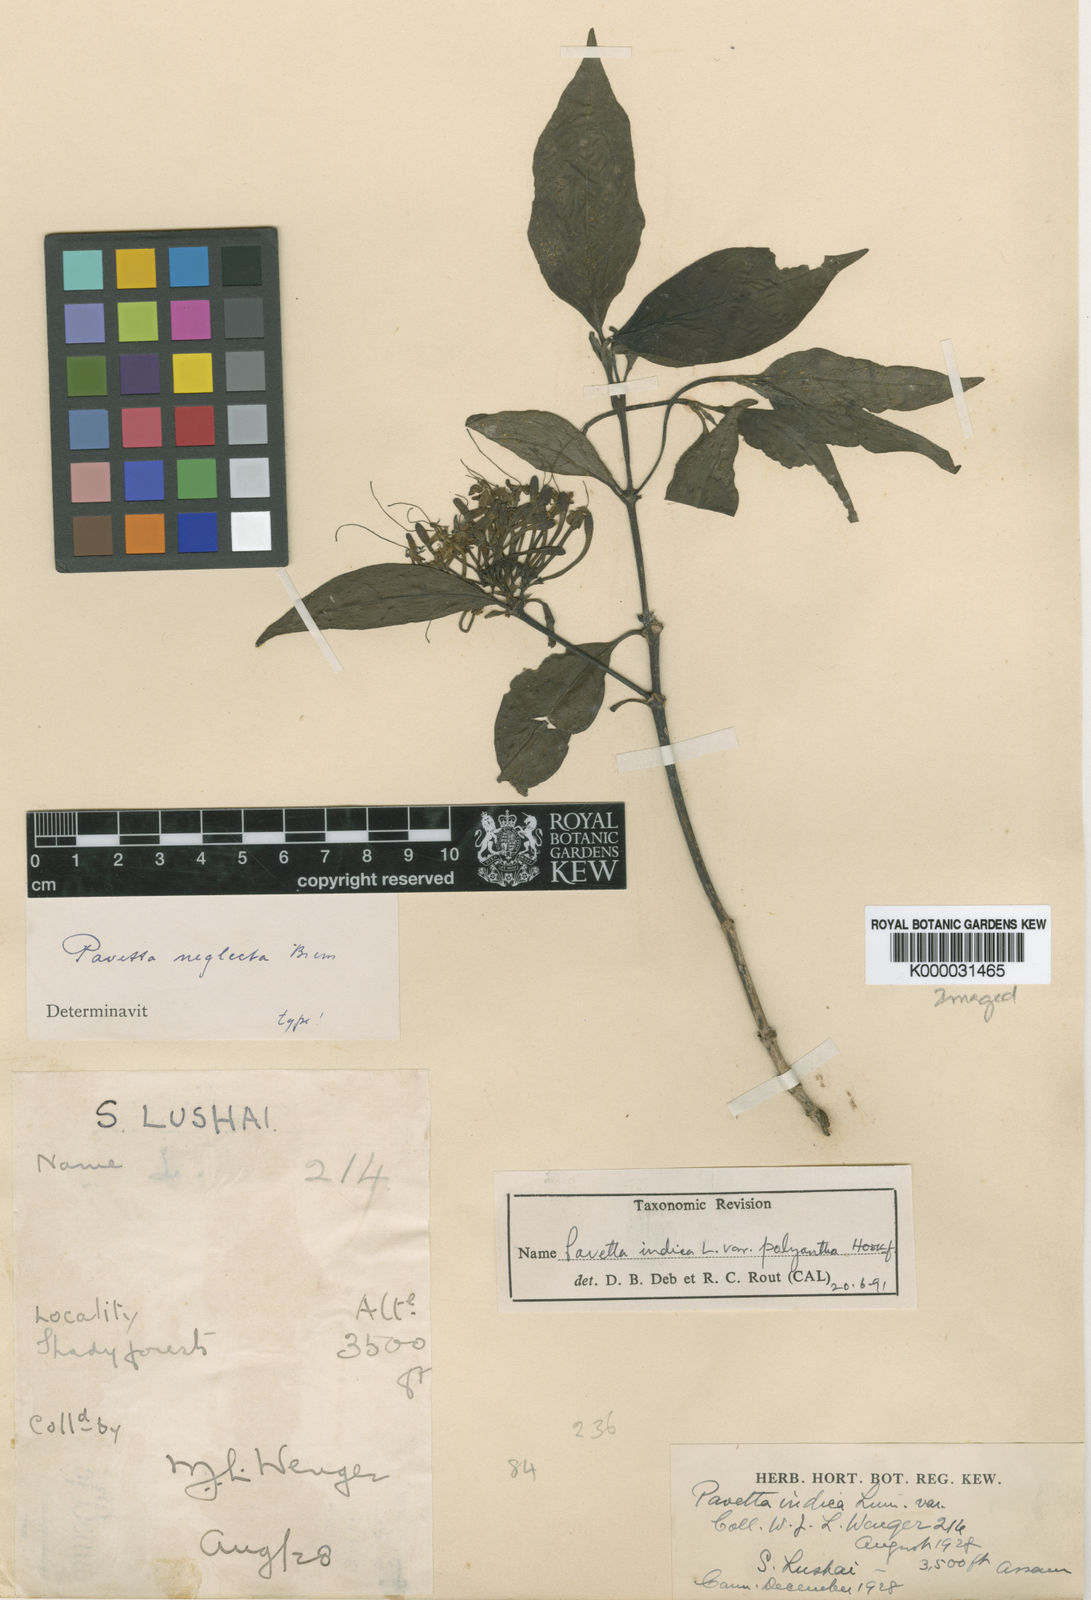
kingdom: Plantae
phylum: Tracheophyta
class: Magnoliopsida
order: Gentianales
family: Rubiaceae
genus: Pavetta
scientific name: Pavetta tomentosa
